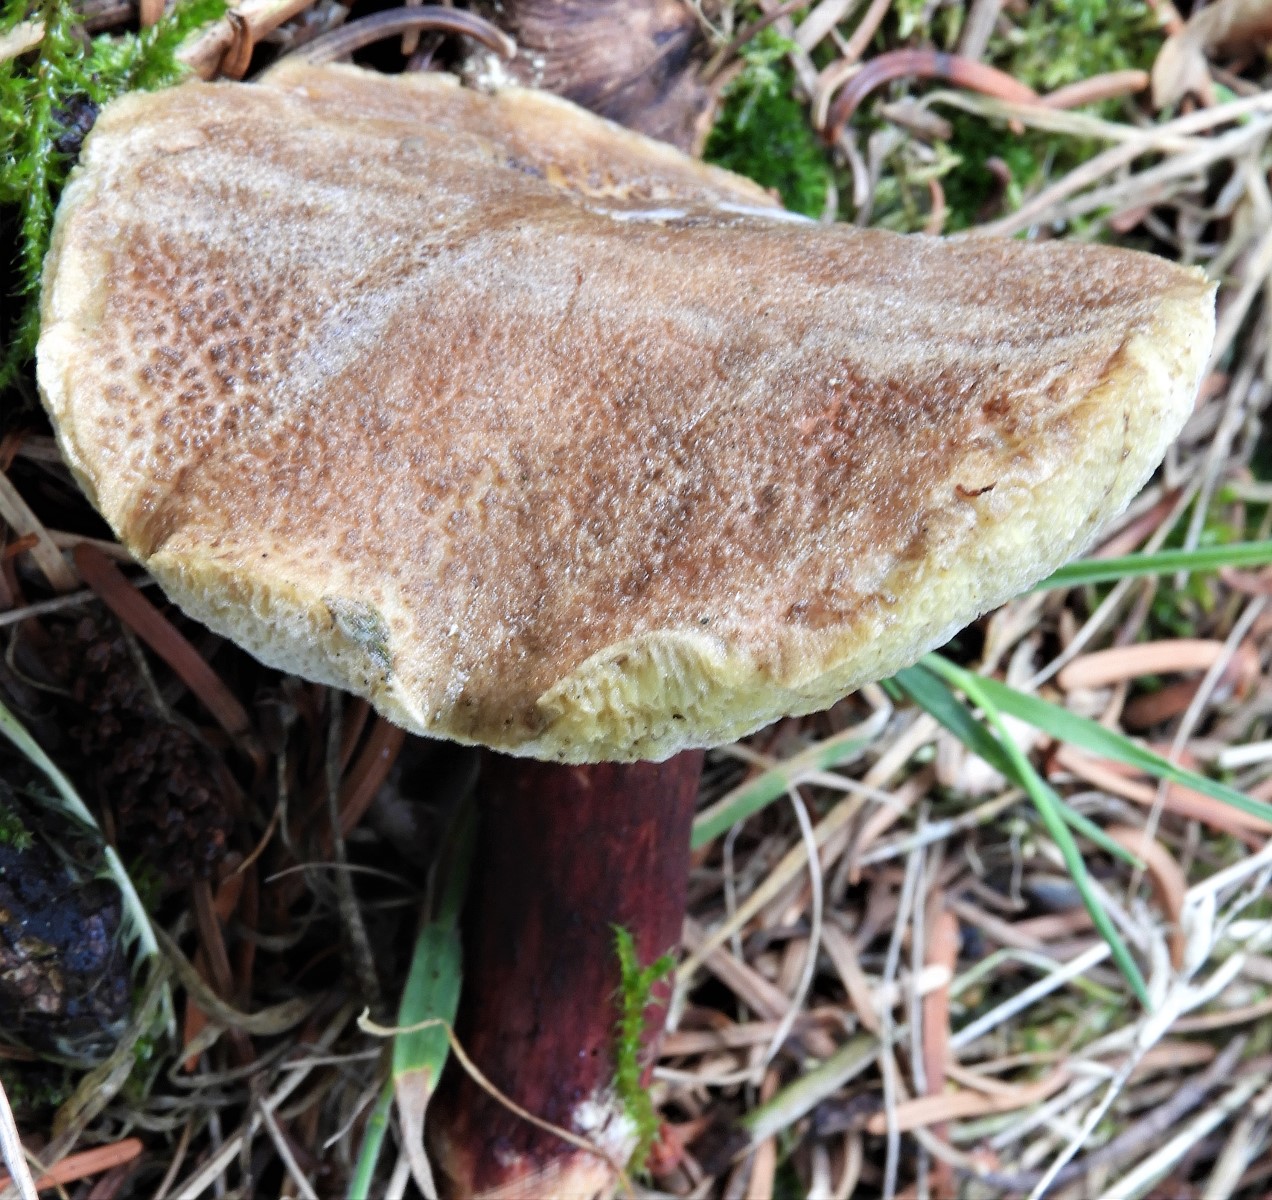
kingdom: Fungi
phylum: Basidiomycota
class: Agaricomycetes
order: Boletales
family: Boletaceae
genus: Xerocomellus
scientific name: Xerocomellus chrysenteron
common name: rødsprukken rørhat
